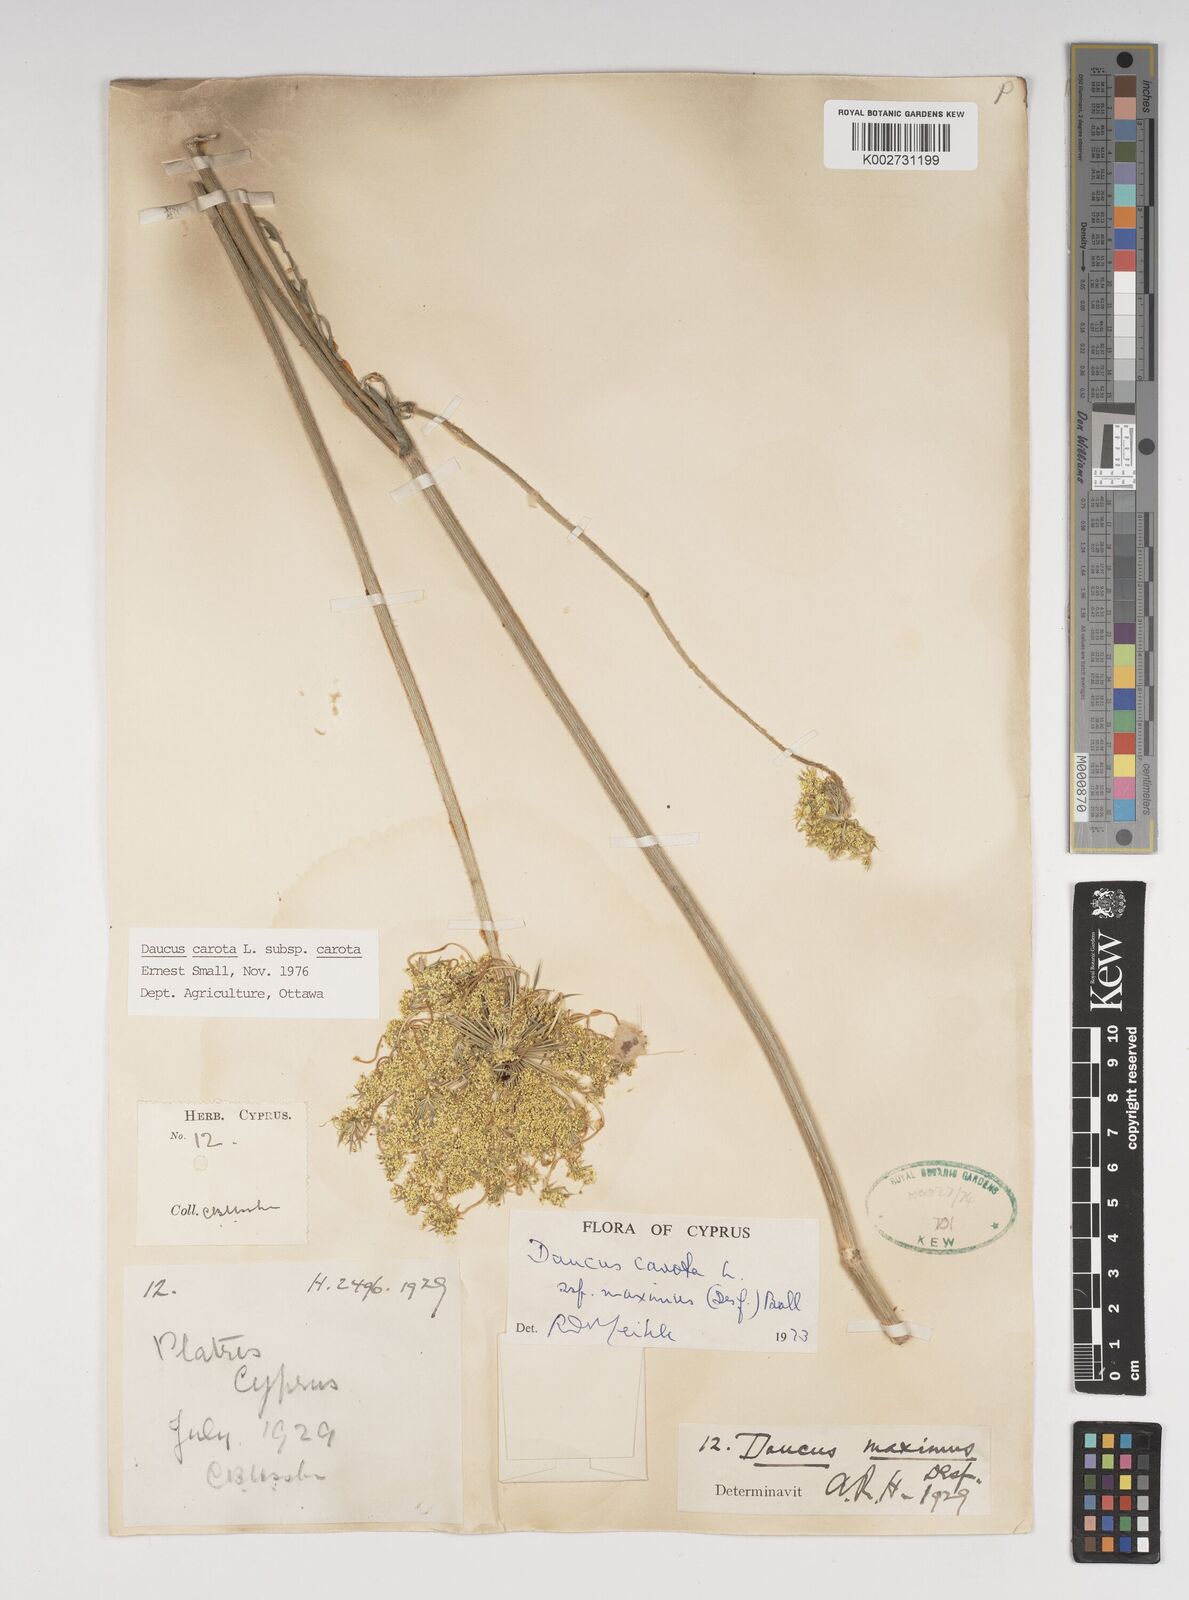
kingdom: Plantae
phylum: Tracheophyta
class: Magnoliopsida
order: Apiales
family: Apiaceae
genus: Daucus
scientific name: Daucus carota
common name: Wild carrot
